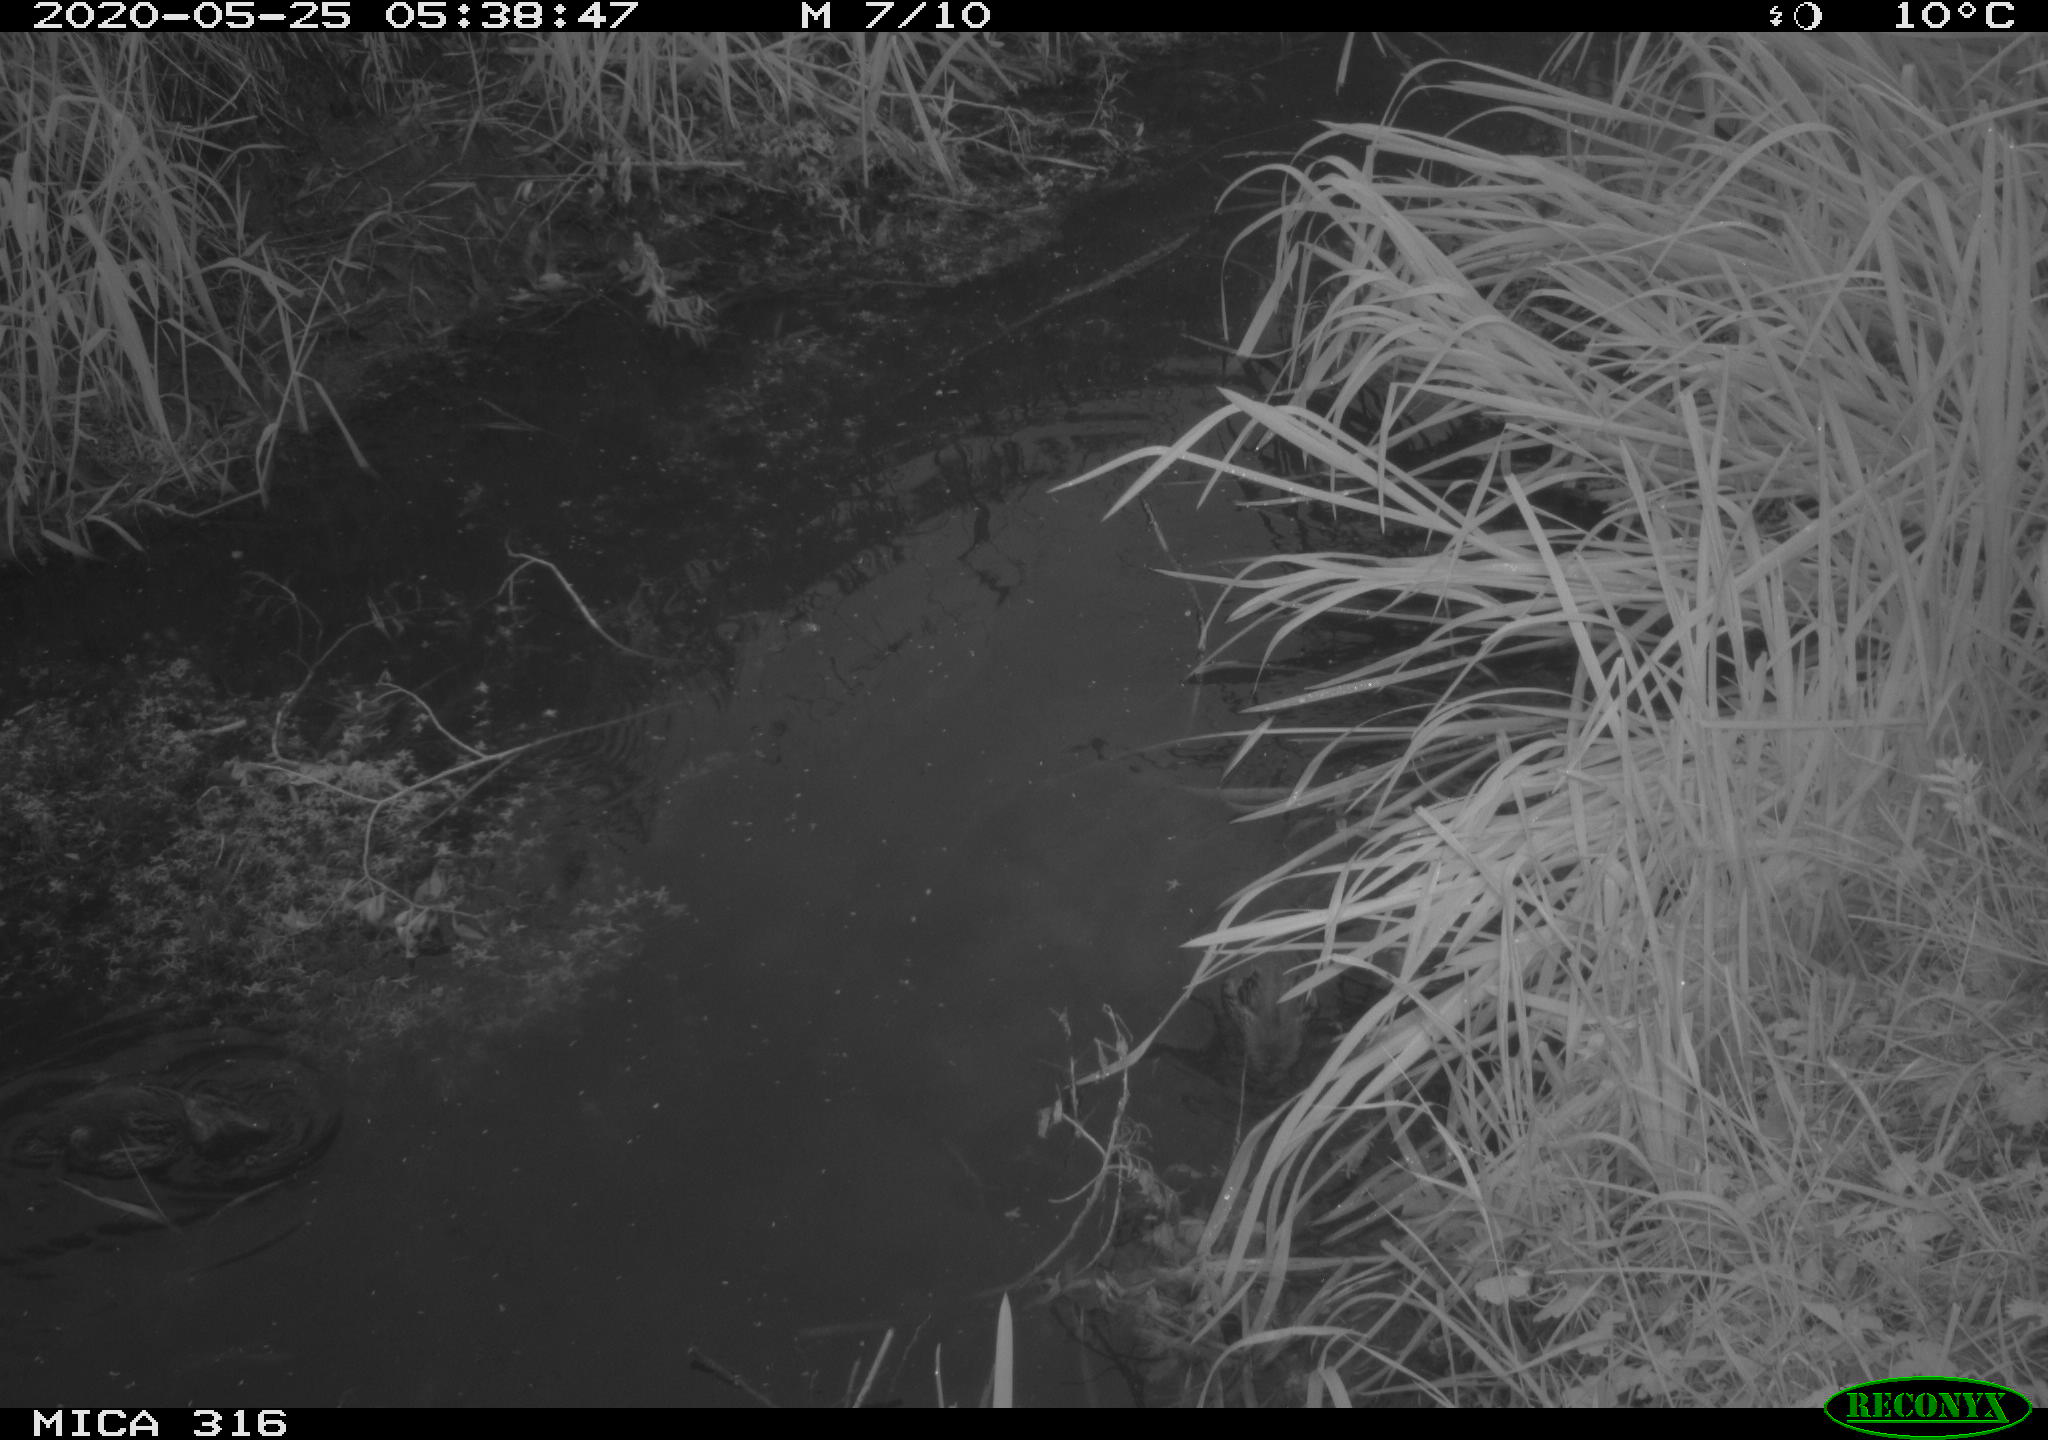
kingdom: Animalia
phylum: Chordata
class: Aves
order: Anseriformes
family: Anatidae
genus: Anas
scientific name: Anas platyrhynchos
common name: Mallard
